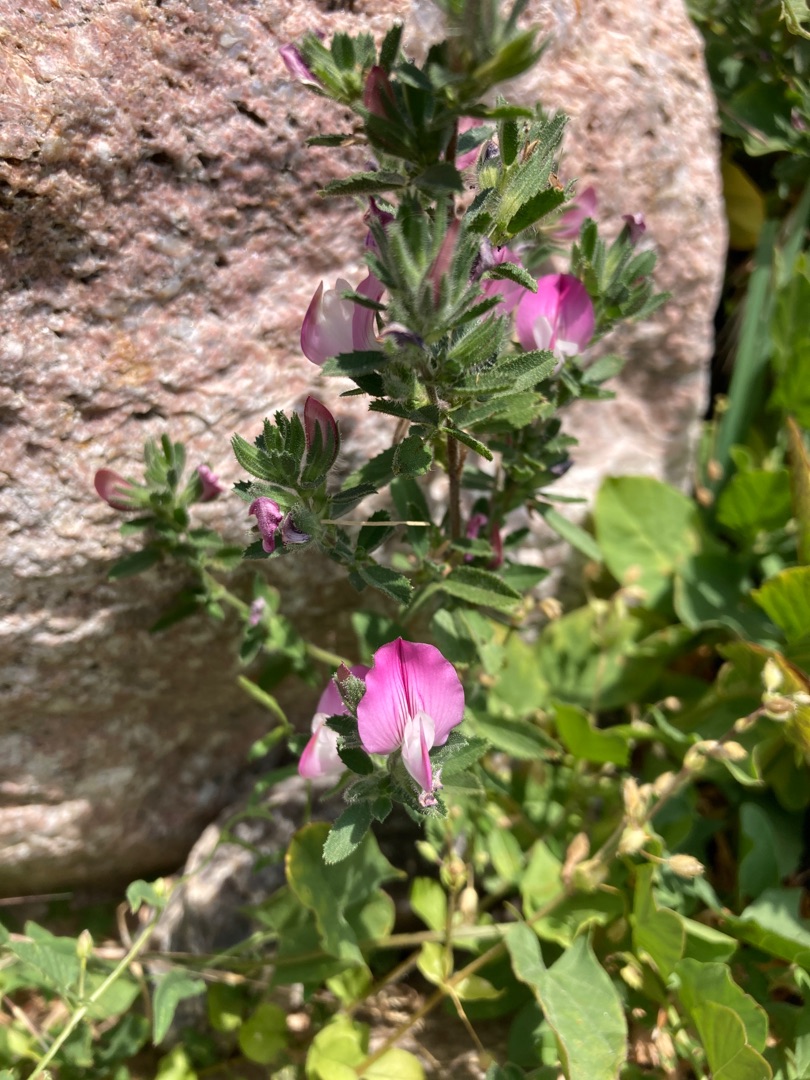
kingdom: Plantae
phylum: Tracheophyta
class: Magnoliopsida
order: Fabales
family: Fabaceae
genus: Ononis
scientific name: Ononis spinosa
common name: Mark-krageklo
